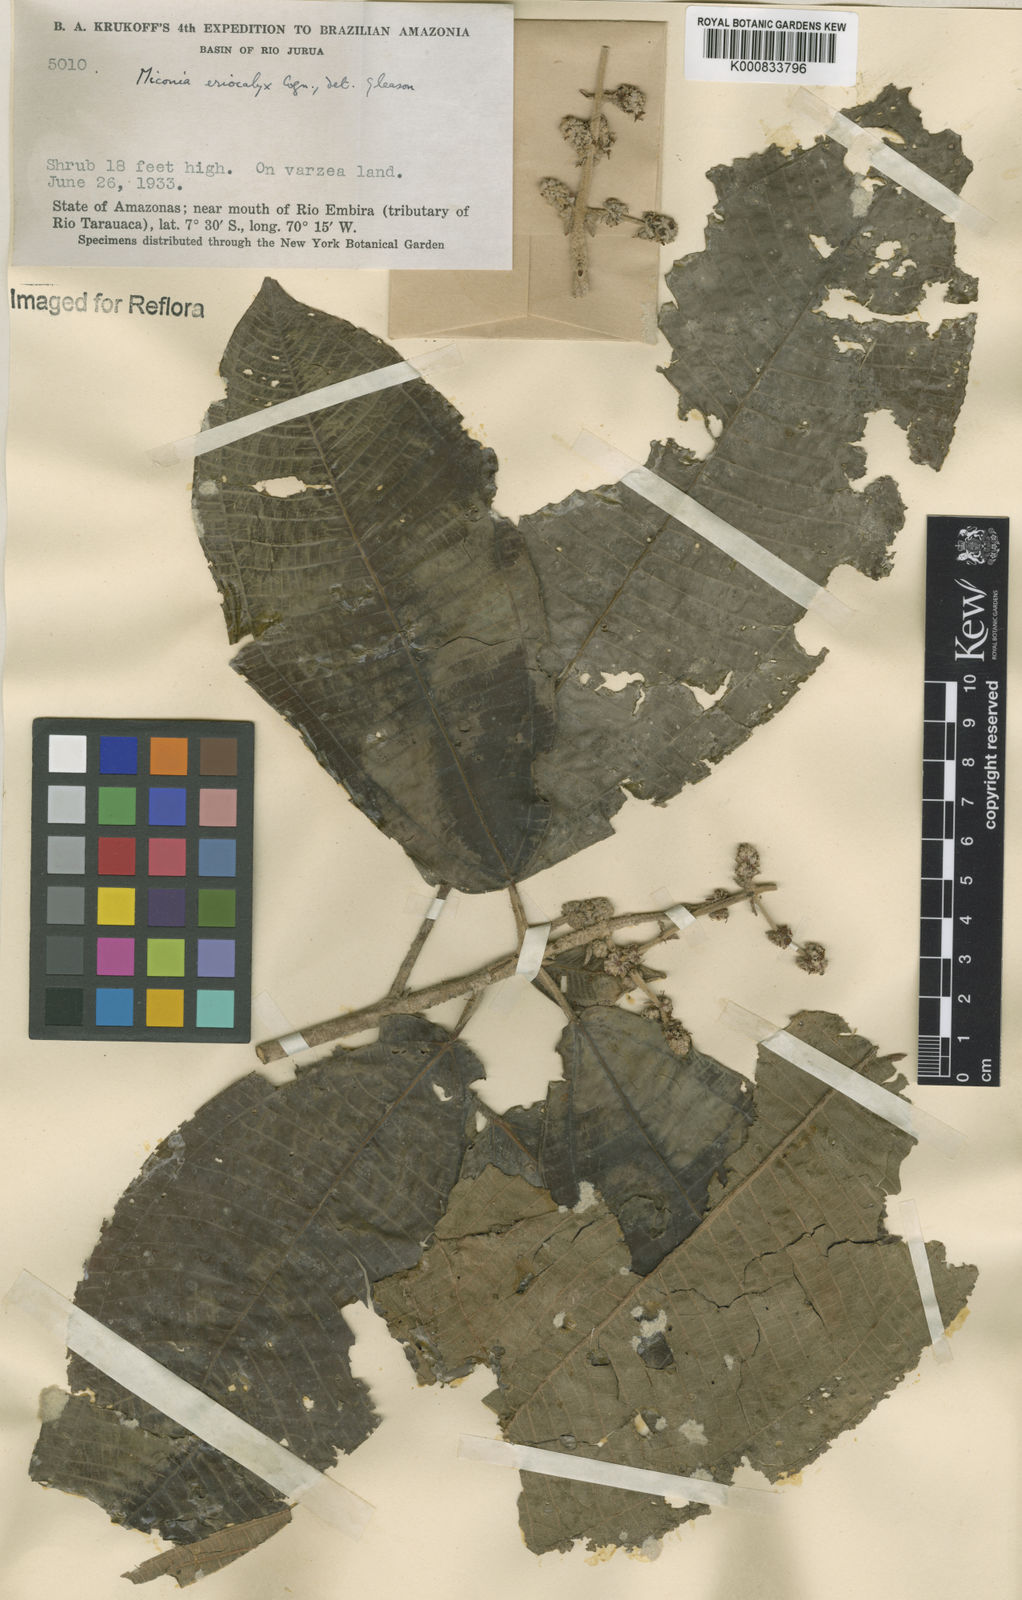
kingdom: Plantae
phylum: Tracheophyta
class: Magnoliopsida
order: Myrtales
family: Melastomataceae
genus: Miconia
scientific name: Miconia eriocalyx
